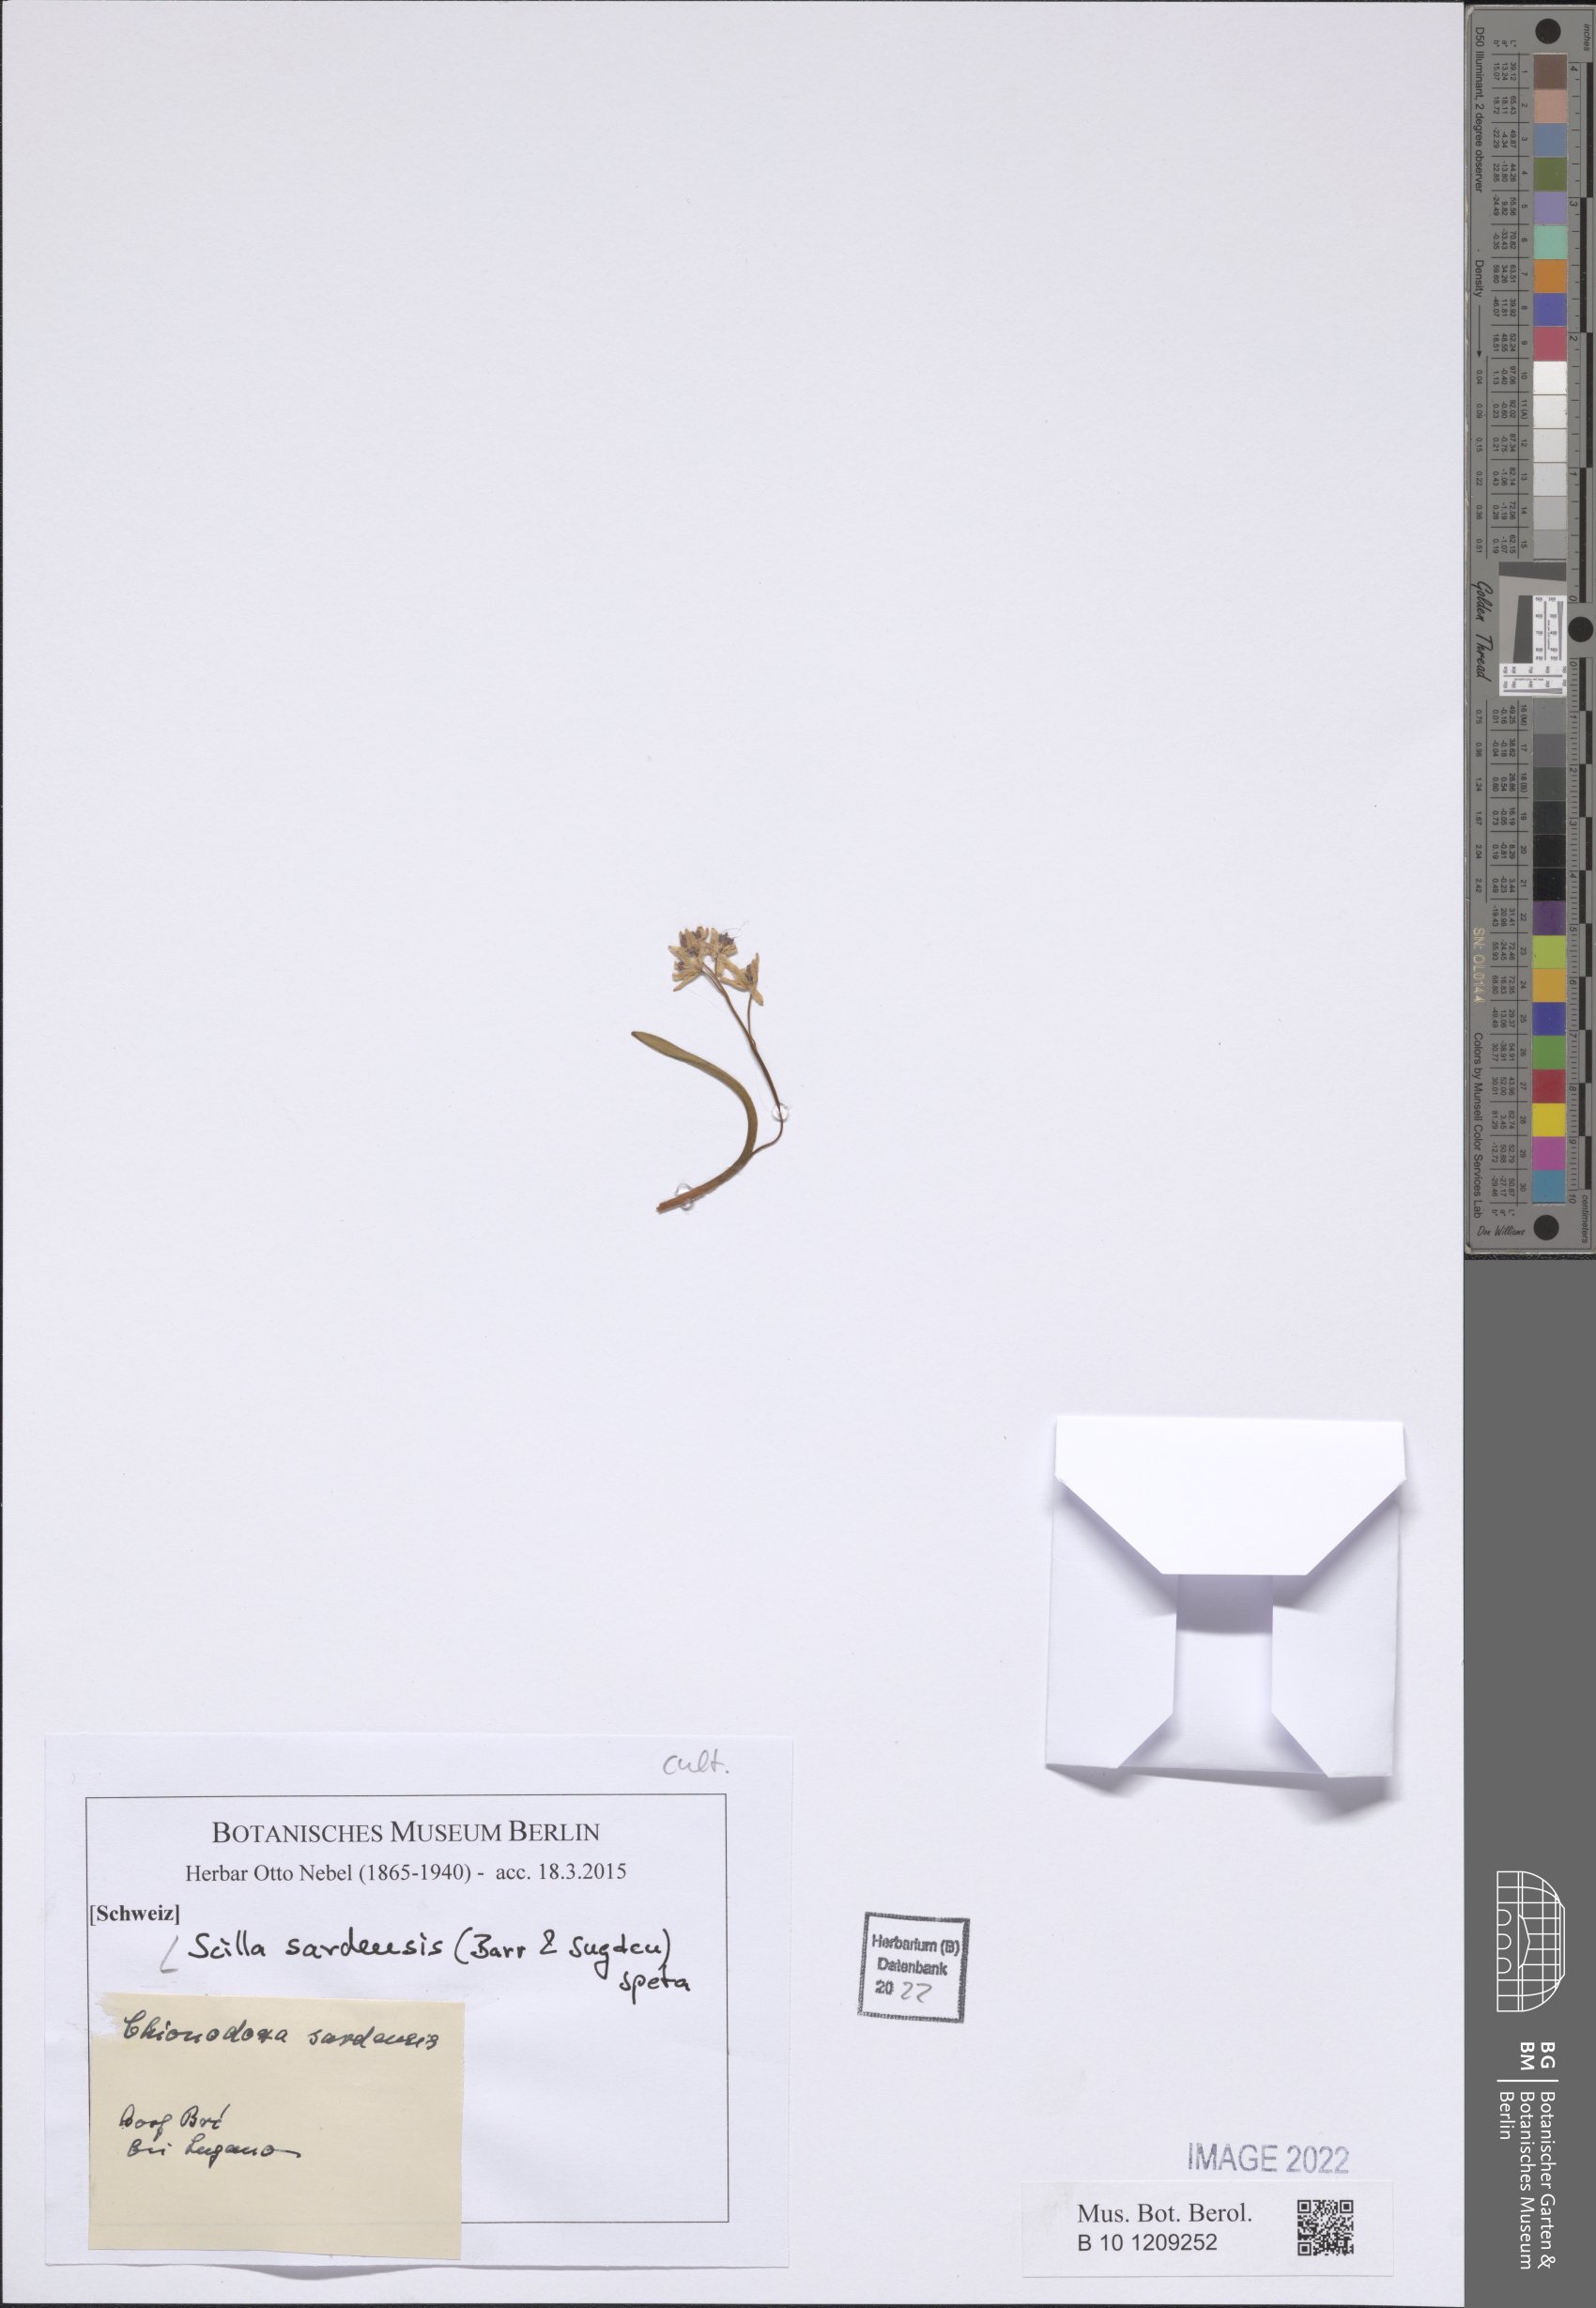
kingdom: Plantae
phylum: Tracheophyta
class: Liliopsida
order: Asparagales
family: Asparagaceae
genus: Scilla
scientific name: Scilla sardensis
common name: Lesser glory-of-the-snow
